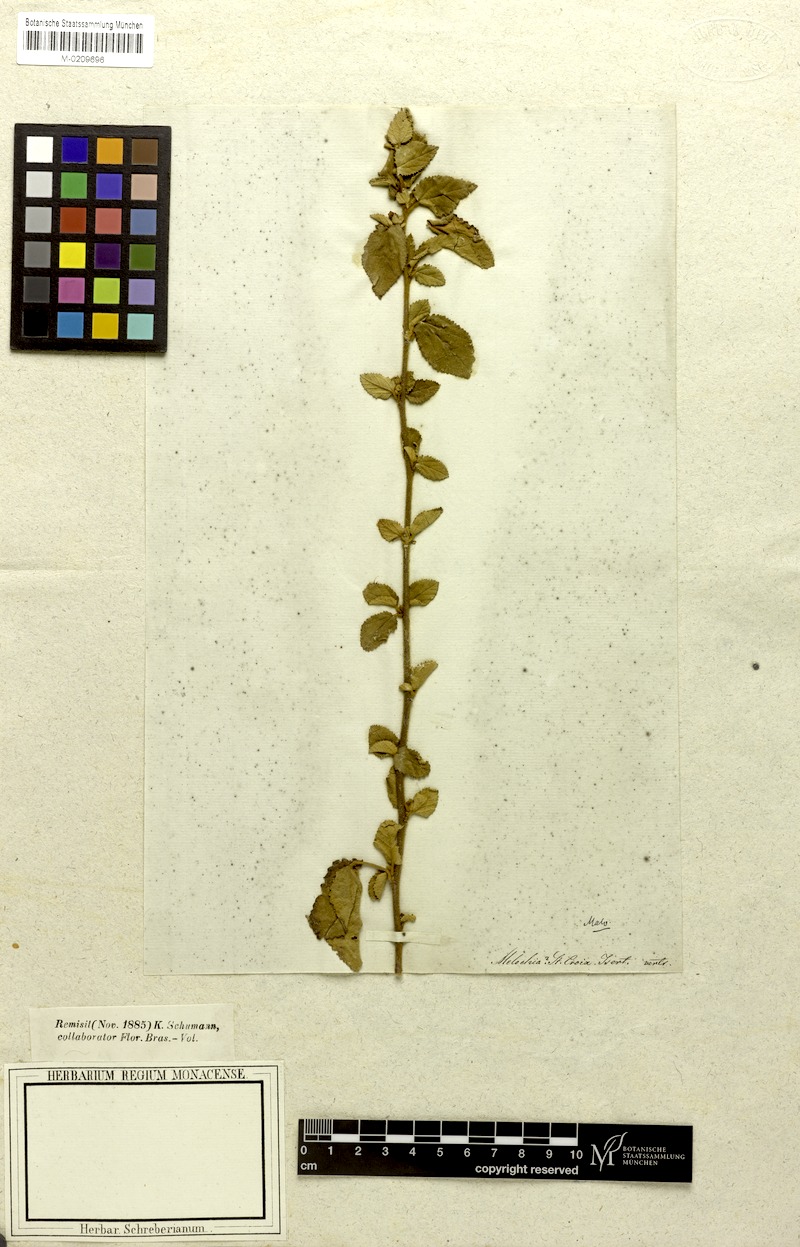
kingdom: Plantae
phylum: Tracheophyta
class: Magnoliopsida
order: Malvales
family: Malvaceae
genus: Melochia
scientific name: Melochia
